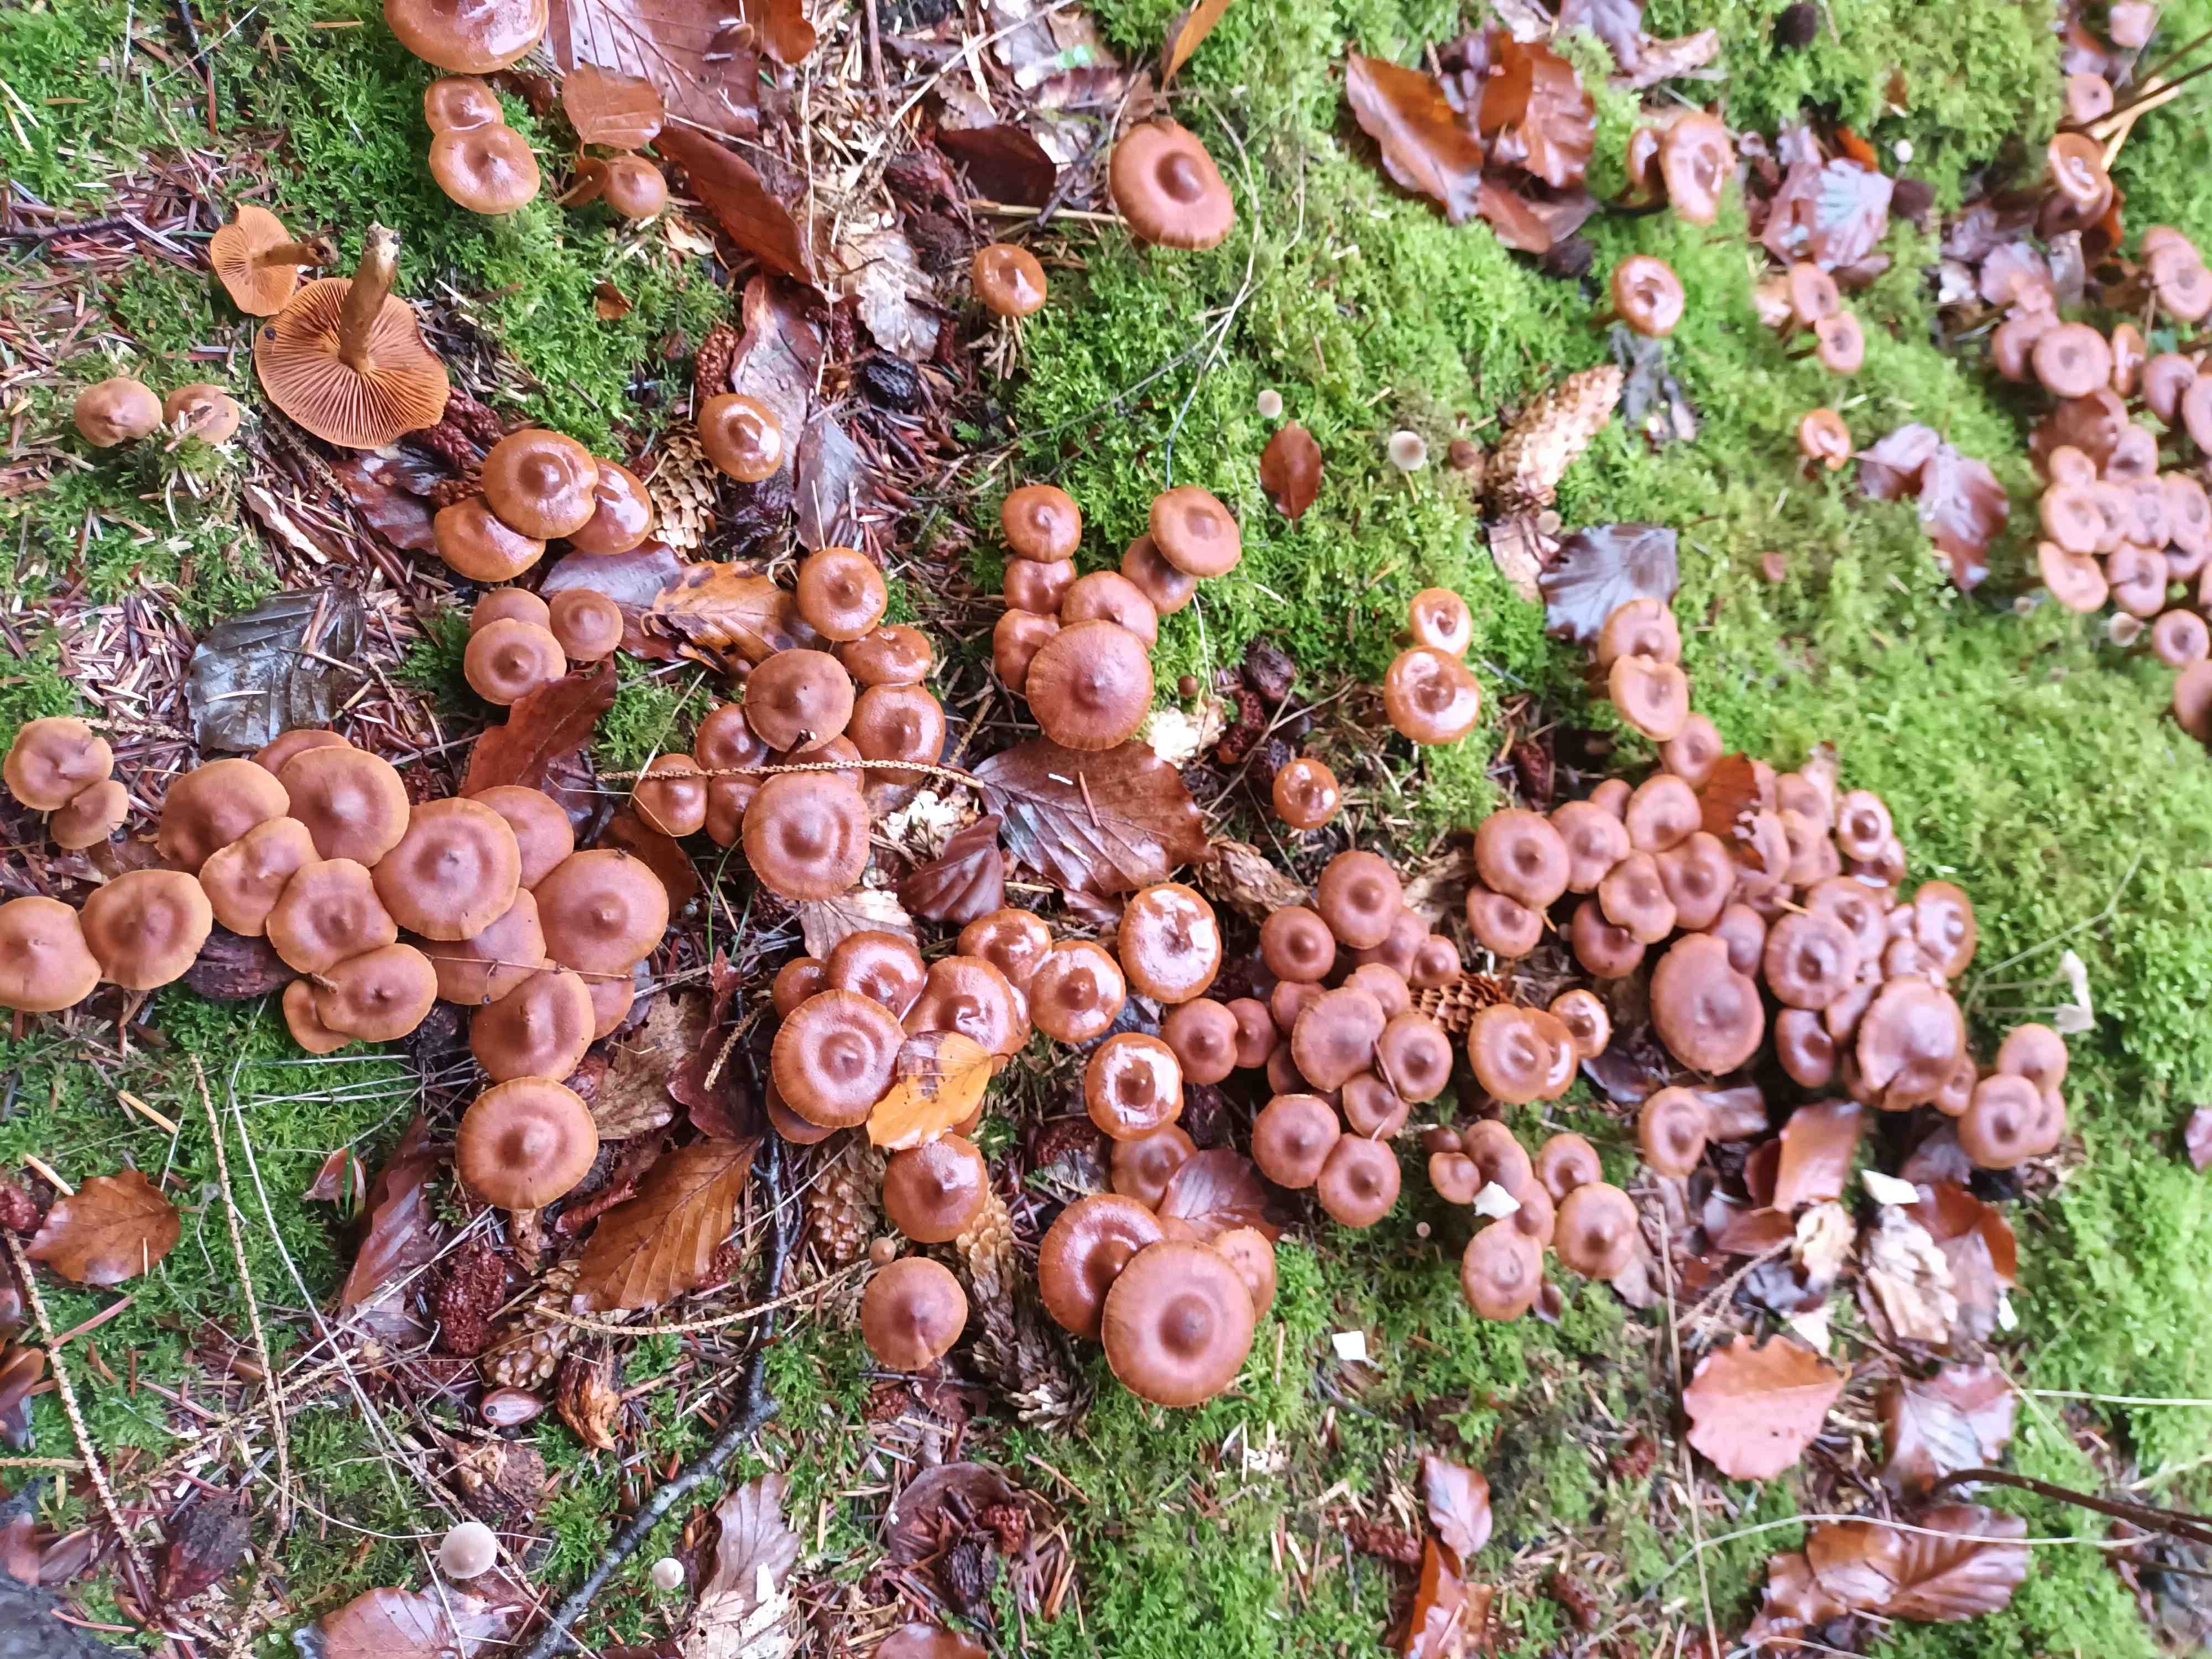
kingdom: Fungi
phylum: Basidiomycota
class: Agaricomycetes
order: Agaricales
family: Cortinariaceae
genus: Cortinarius
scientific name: Cortinarius
